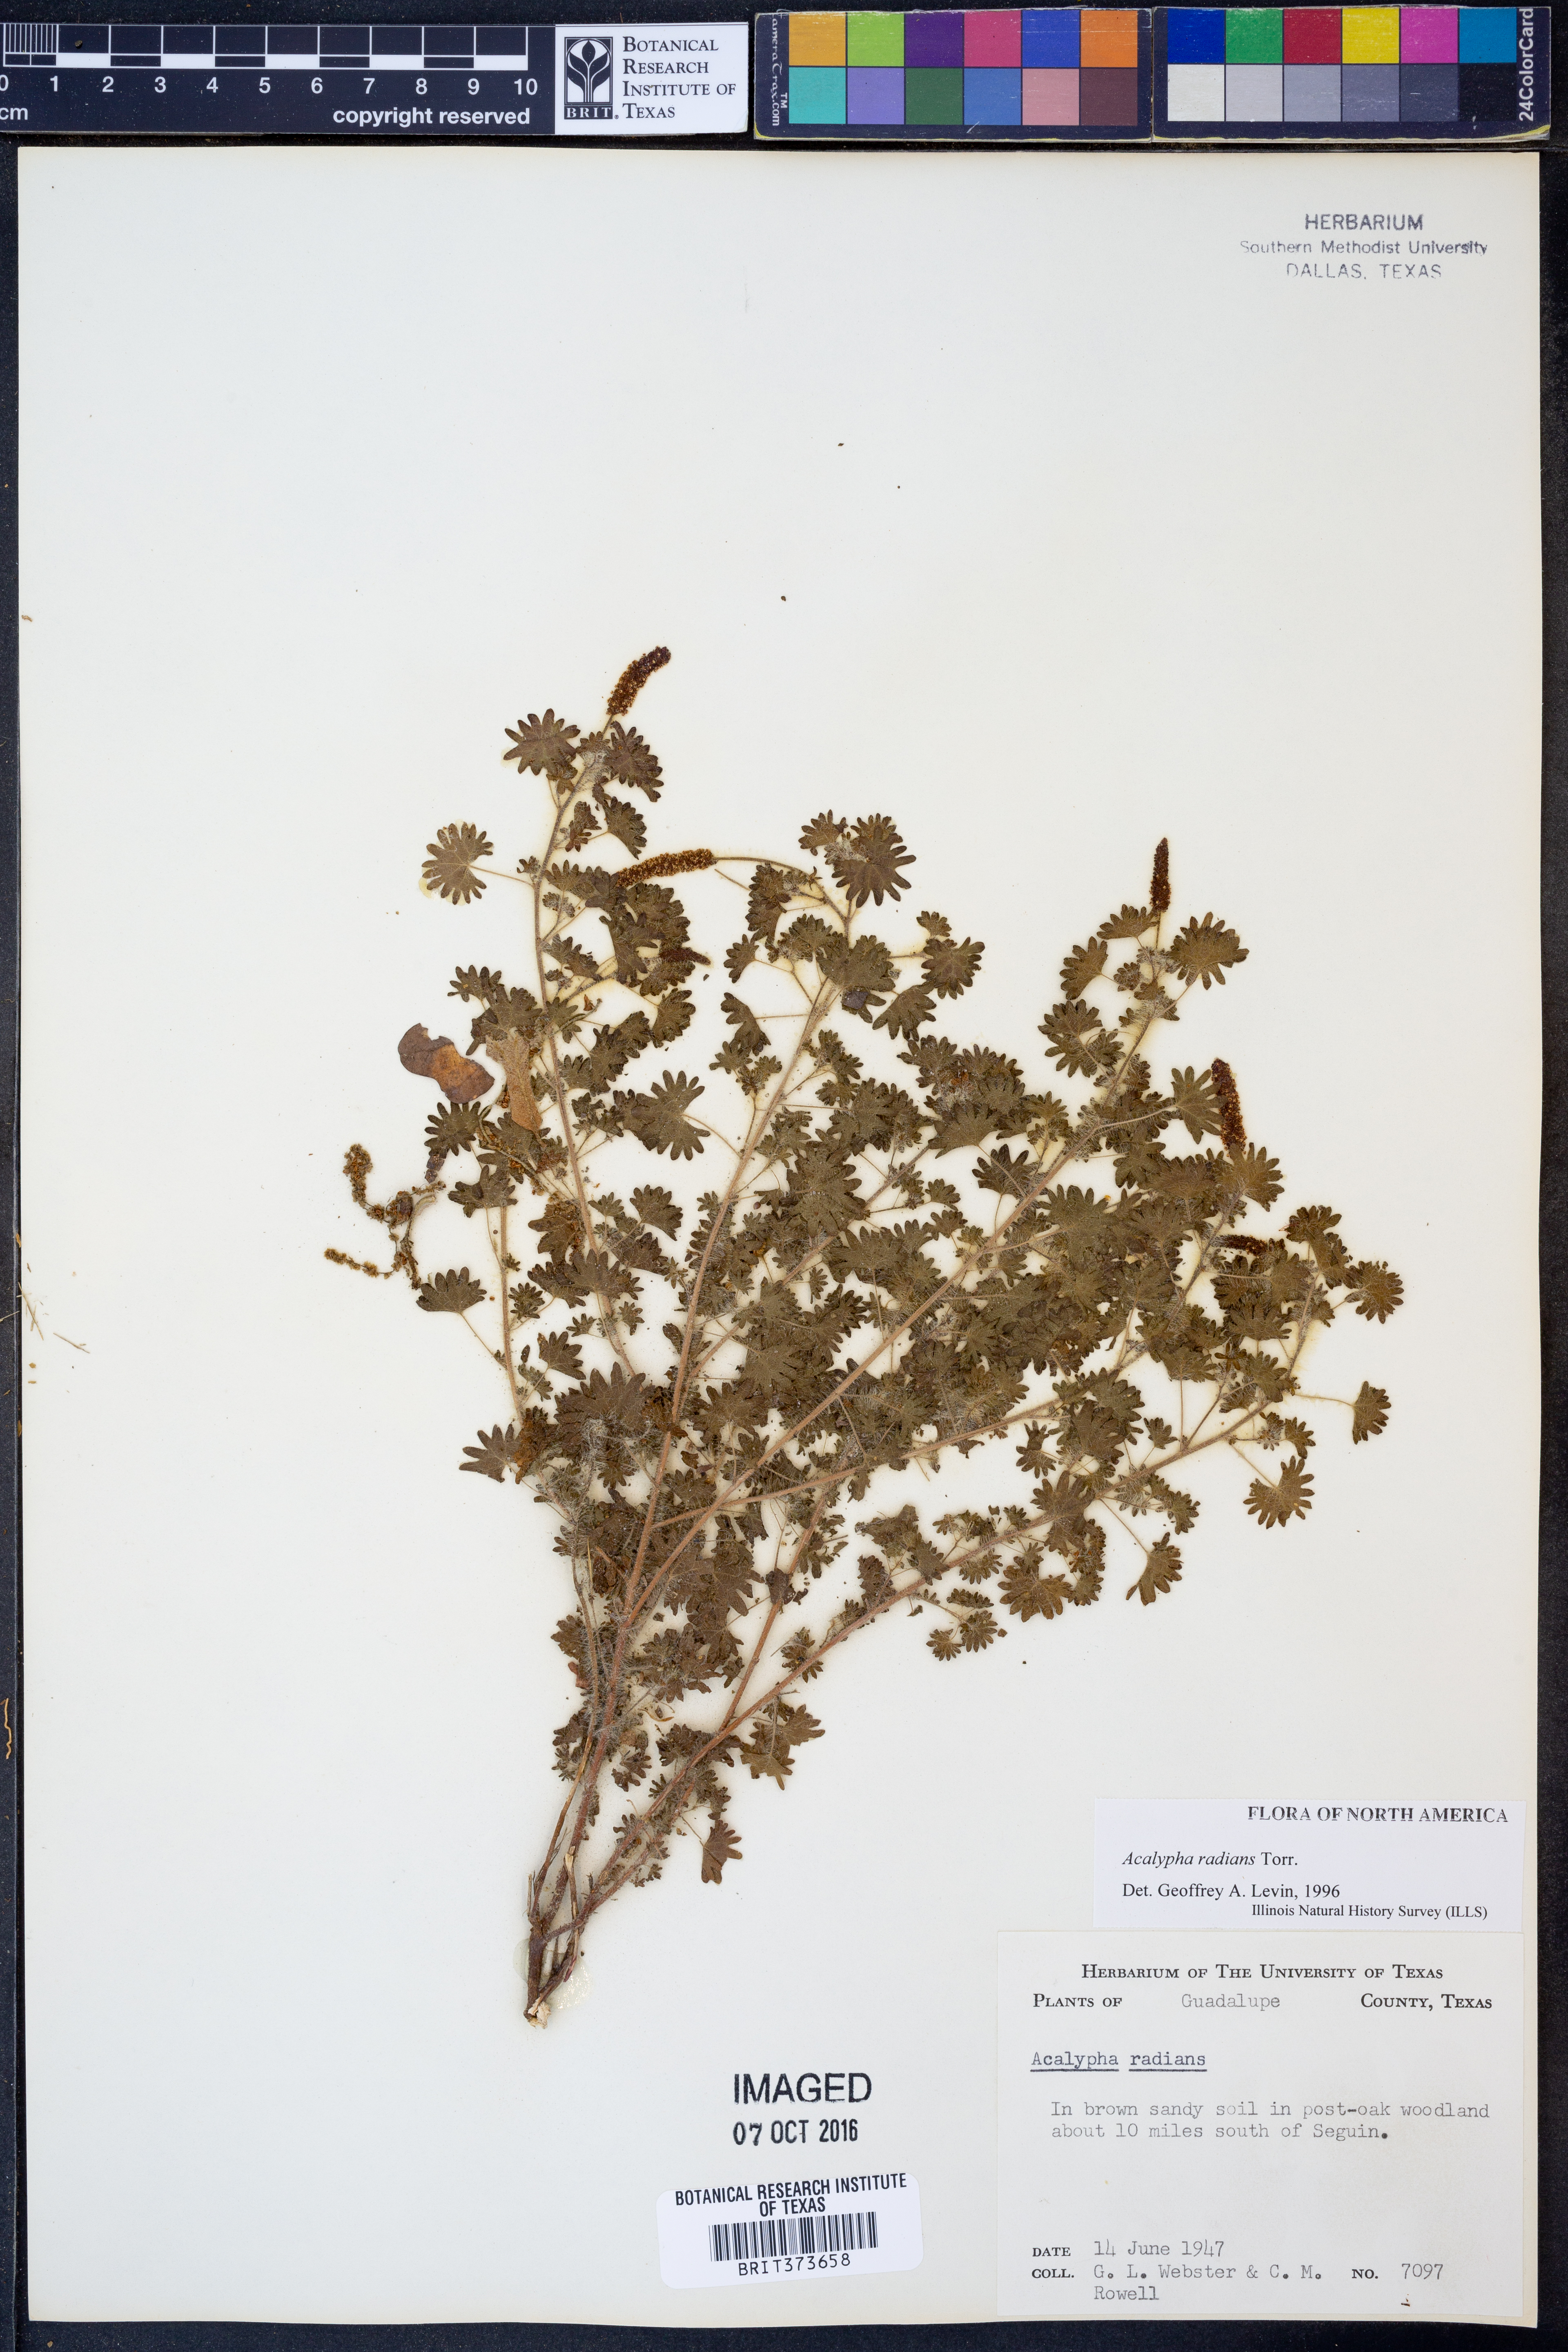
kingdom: Plantae
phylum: Tracheophyta
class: Magnoliopsida
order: Malpighiales
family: Euphorbiaceae
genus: Acalypha
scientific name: Acalypha radians
